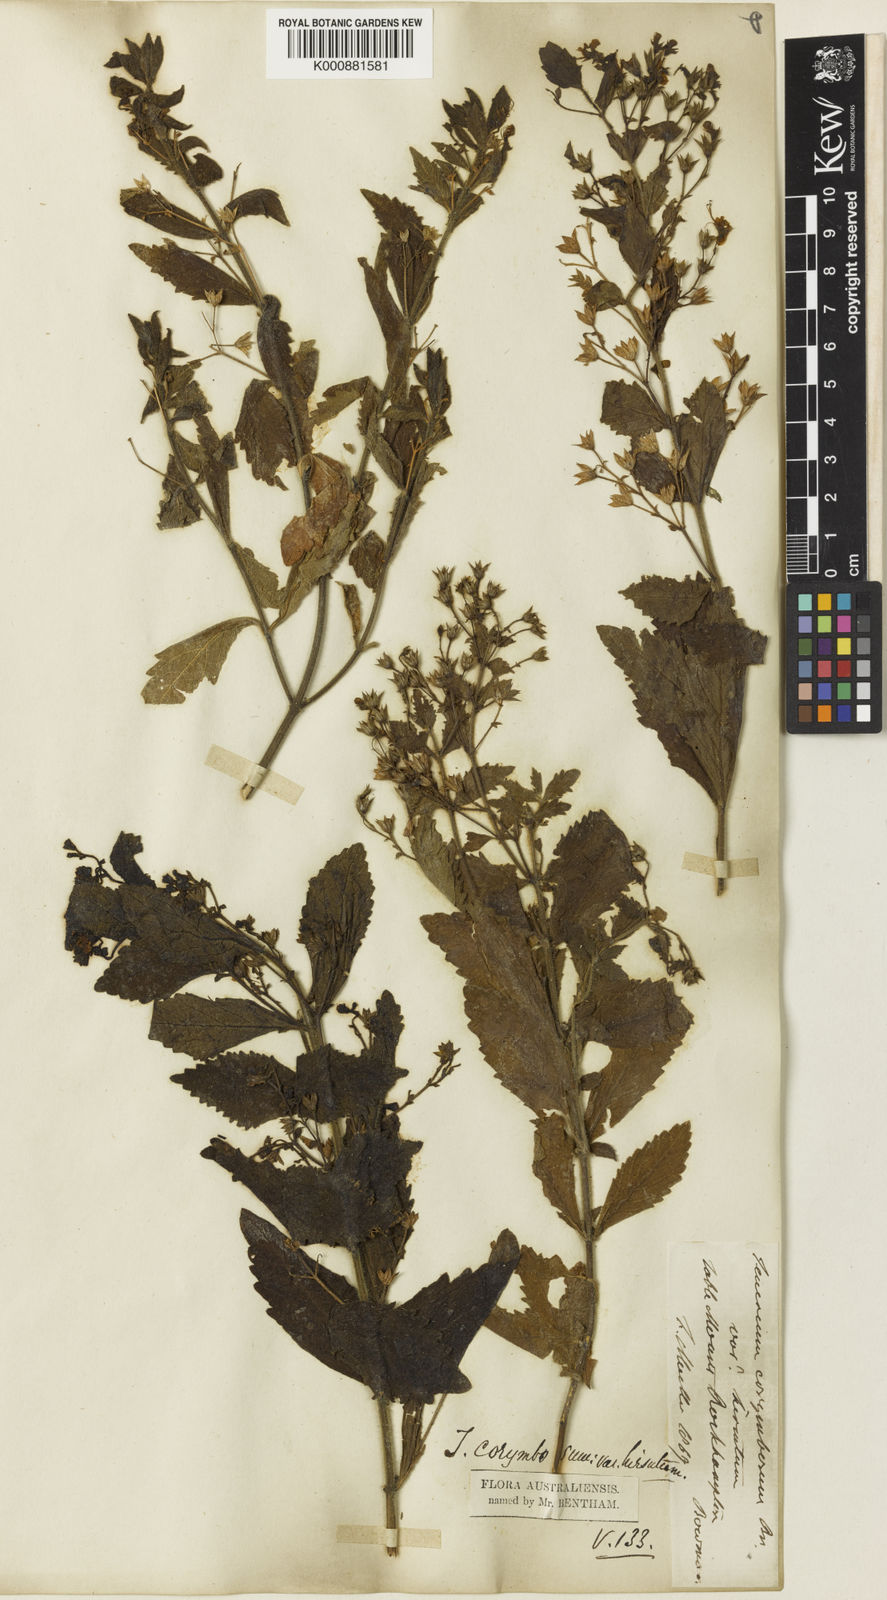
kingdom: Plantae
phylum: Tracheophyta
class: Magnoliopsida
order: Lamiales
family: Lamiaceae
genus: Teucrium
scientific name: Teucrium corymbosum
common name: Forest germander
